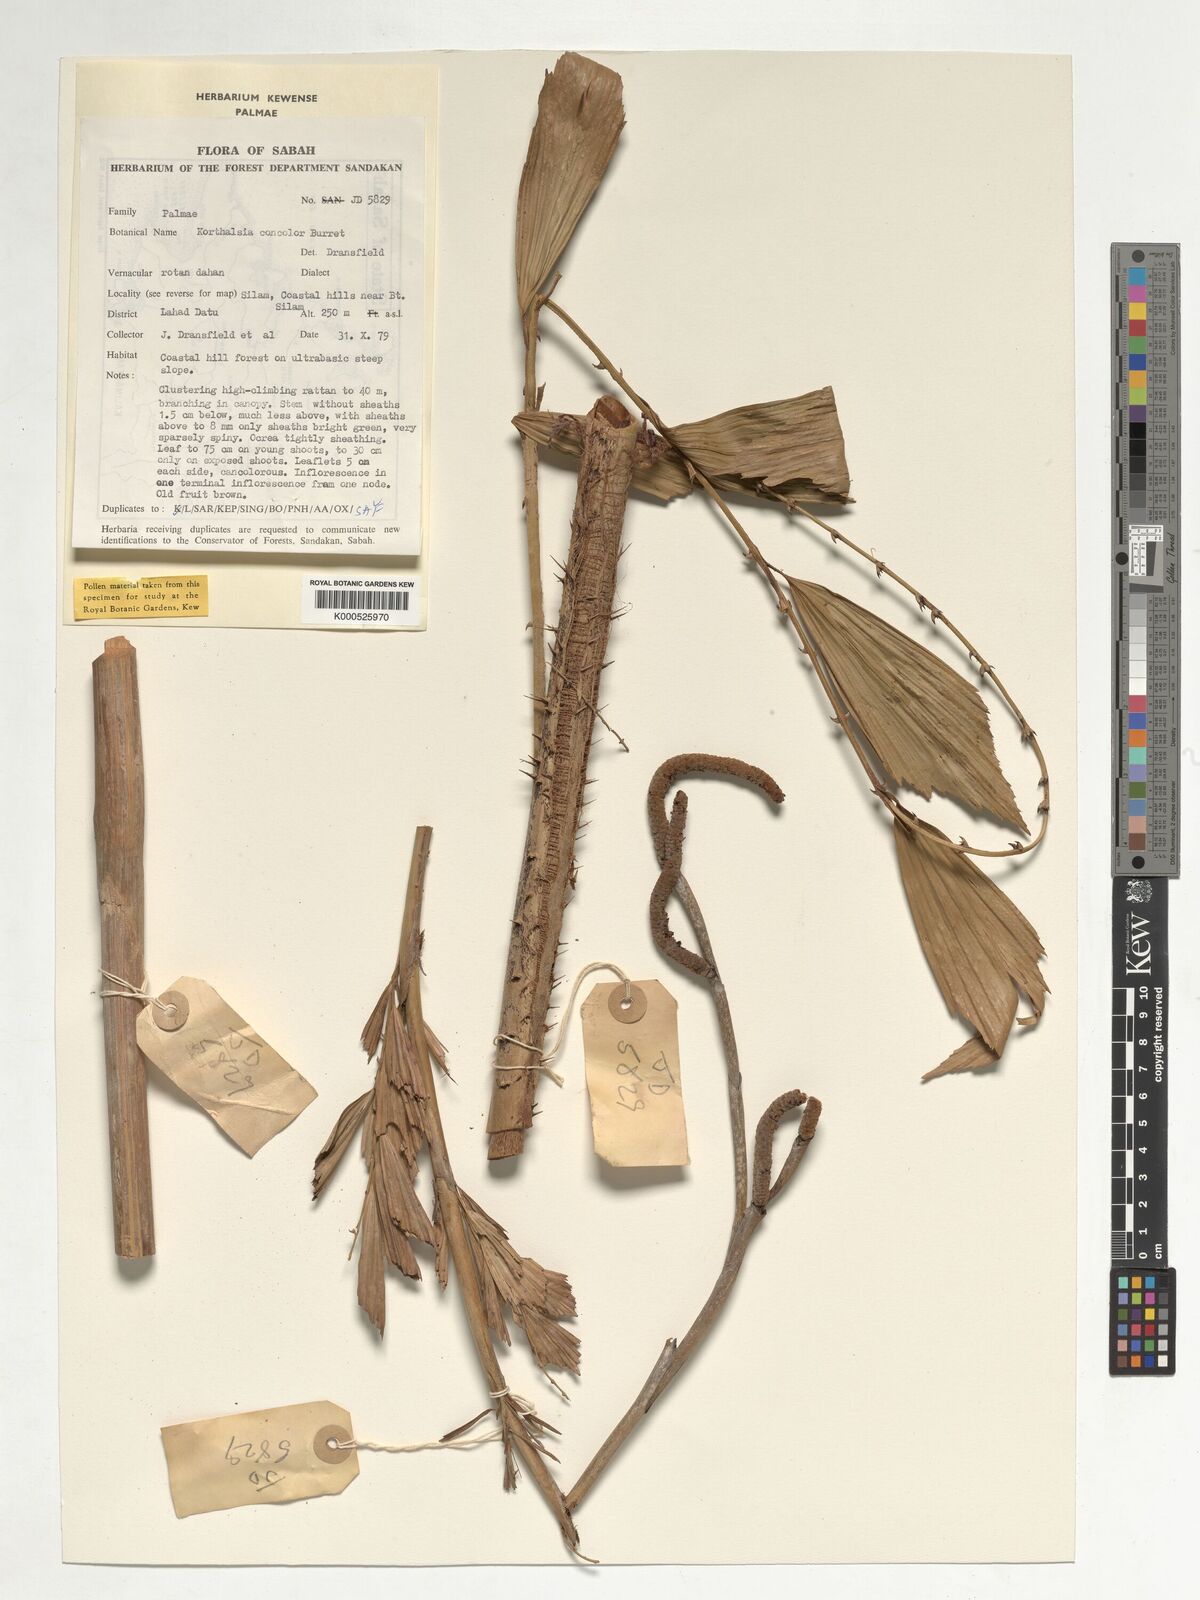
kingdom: Plantae
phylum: Tracheophyta
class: Liliopsida
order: Arecales
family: Arecaceae
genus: Korthalsia
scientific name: Korthalsia concolor
